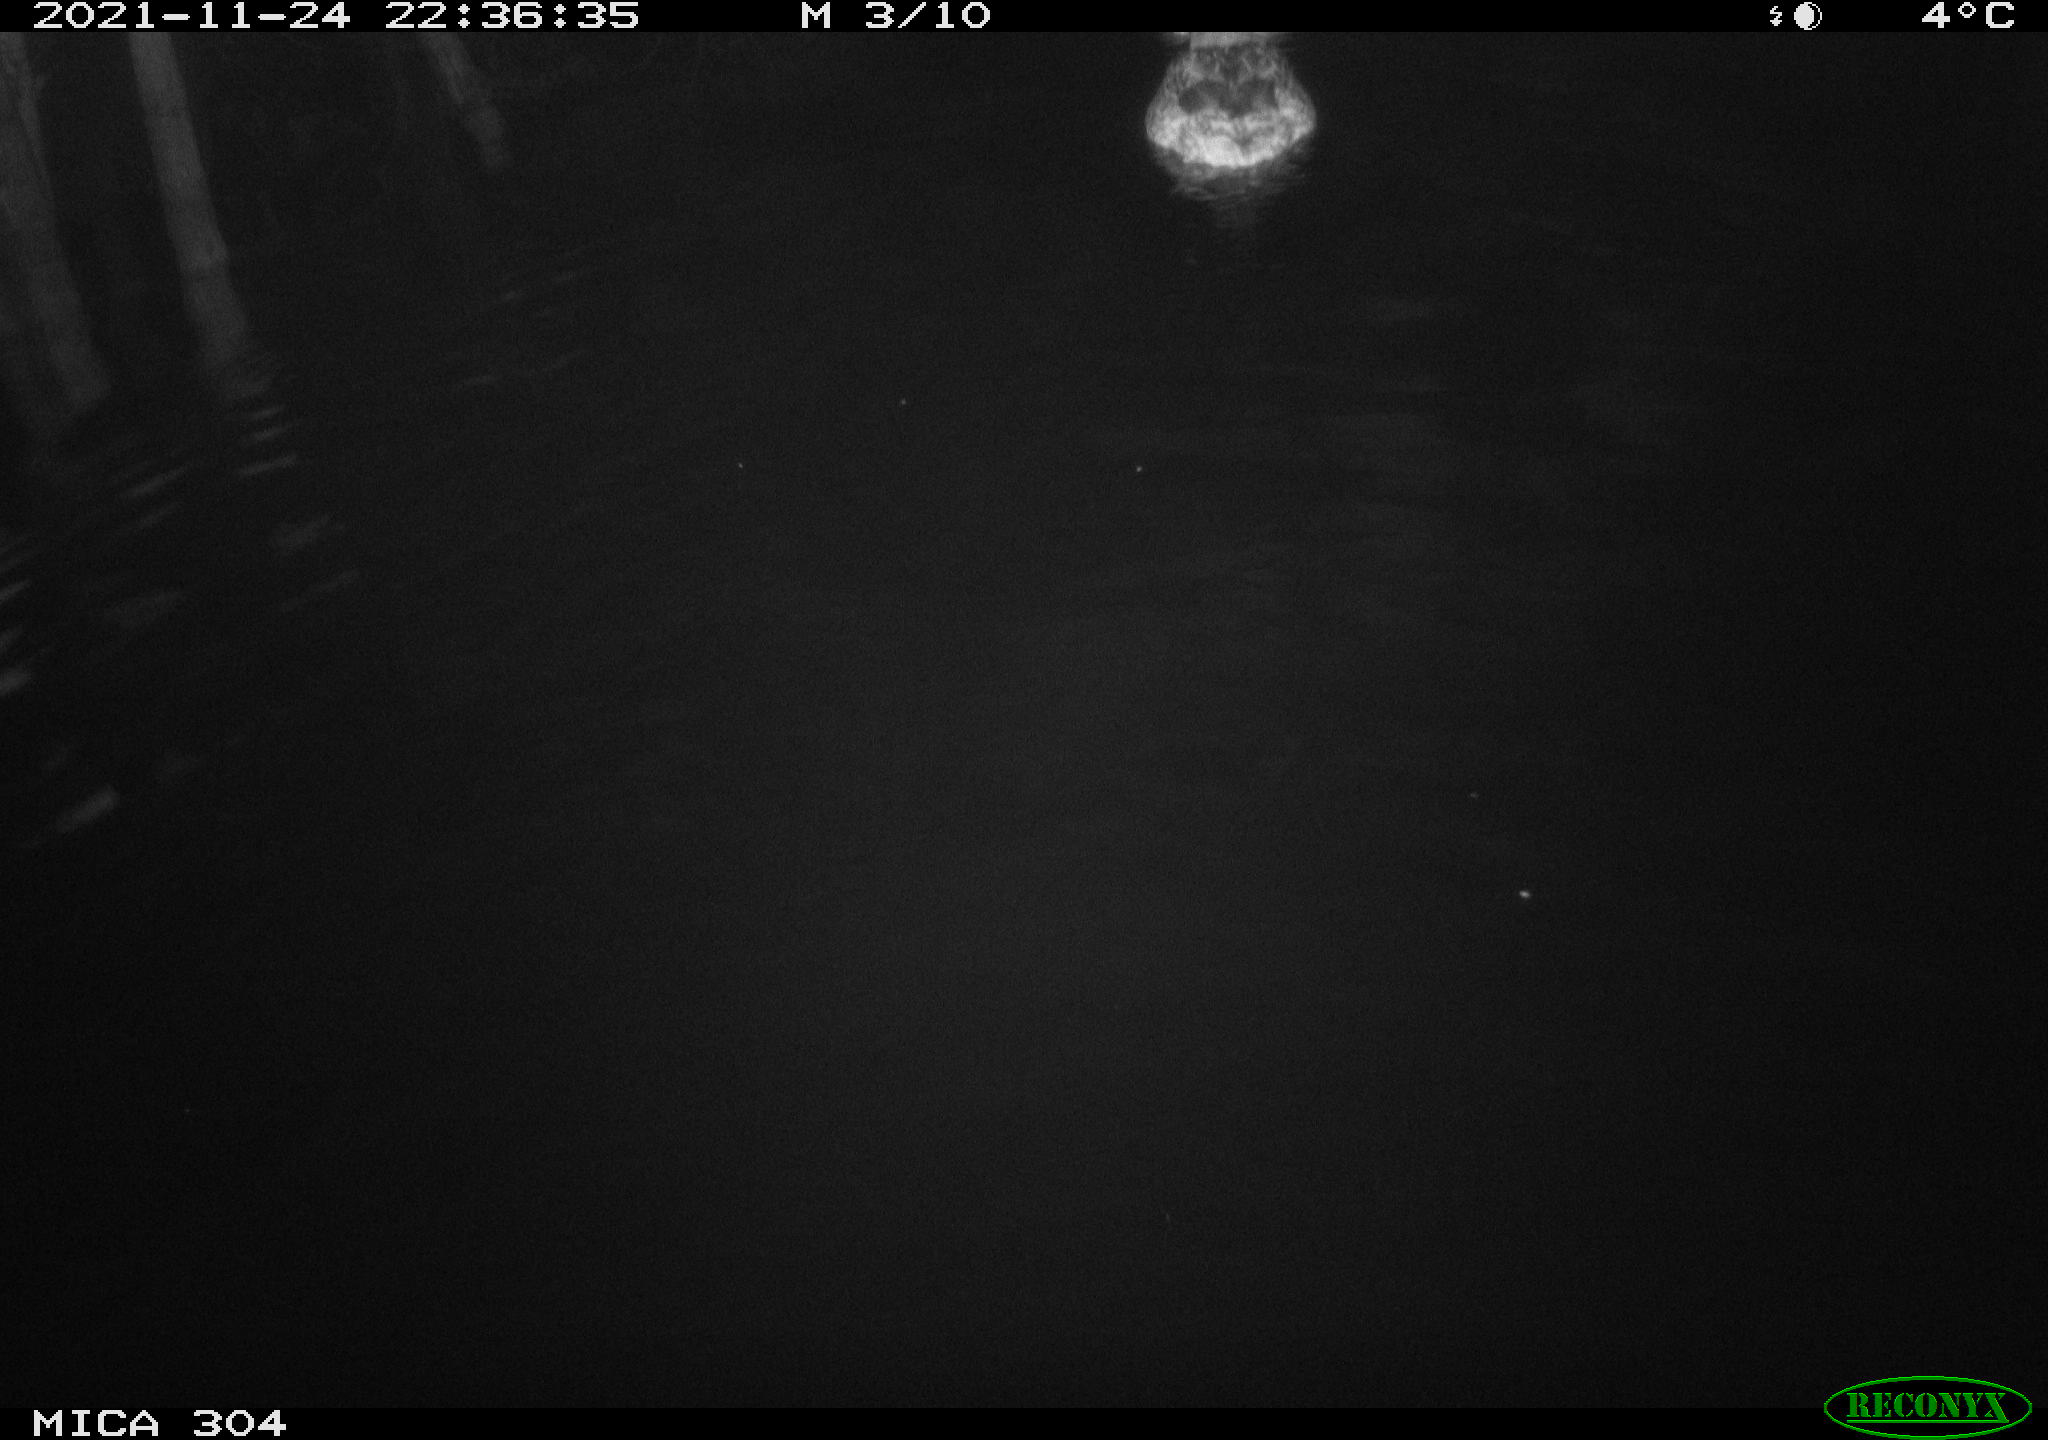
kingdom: Animalia
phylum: Chordata
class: Aves
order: Anseriformes
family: Anatidae
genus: Anas
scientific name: Anas platyrhynchos
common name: Mallard
